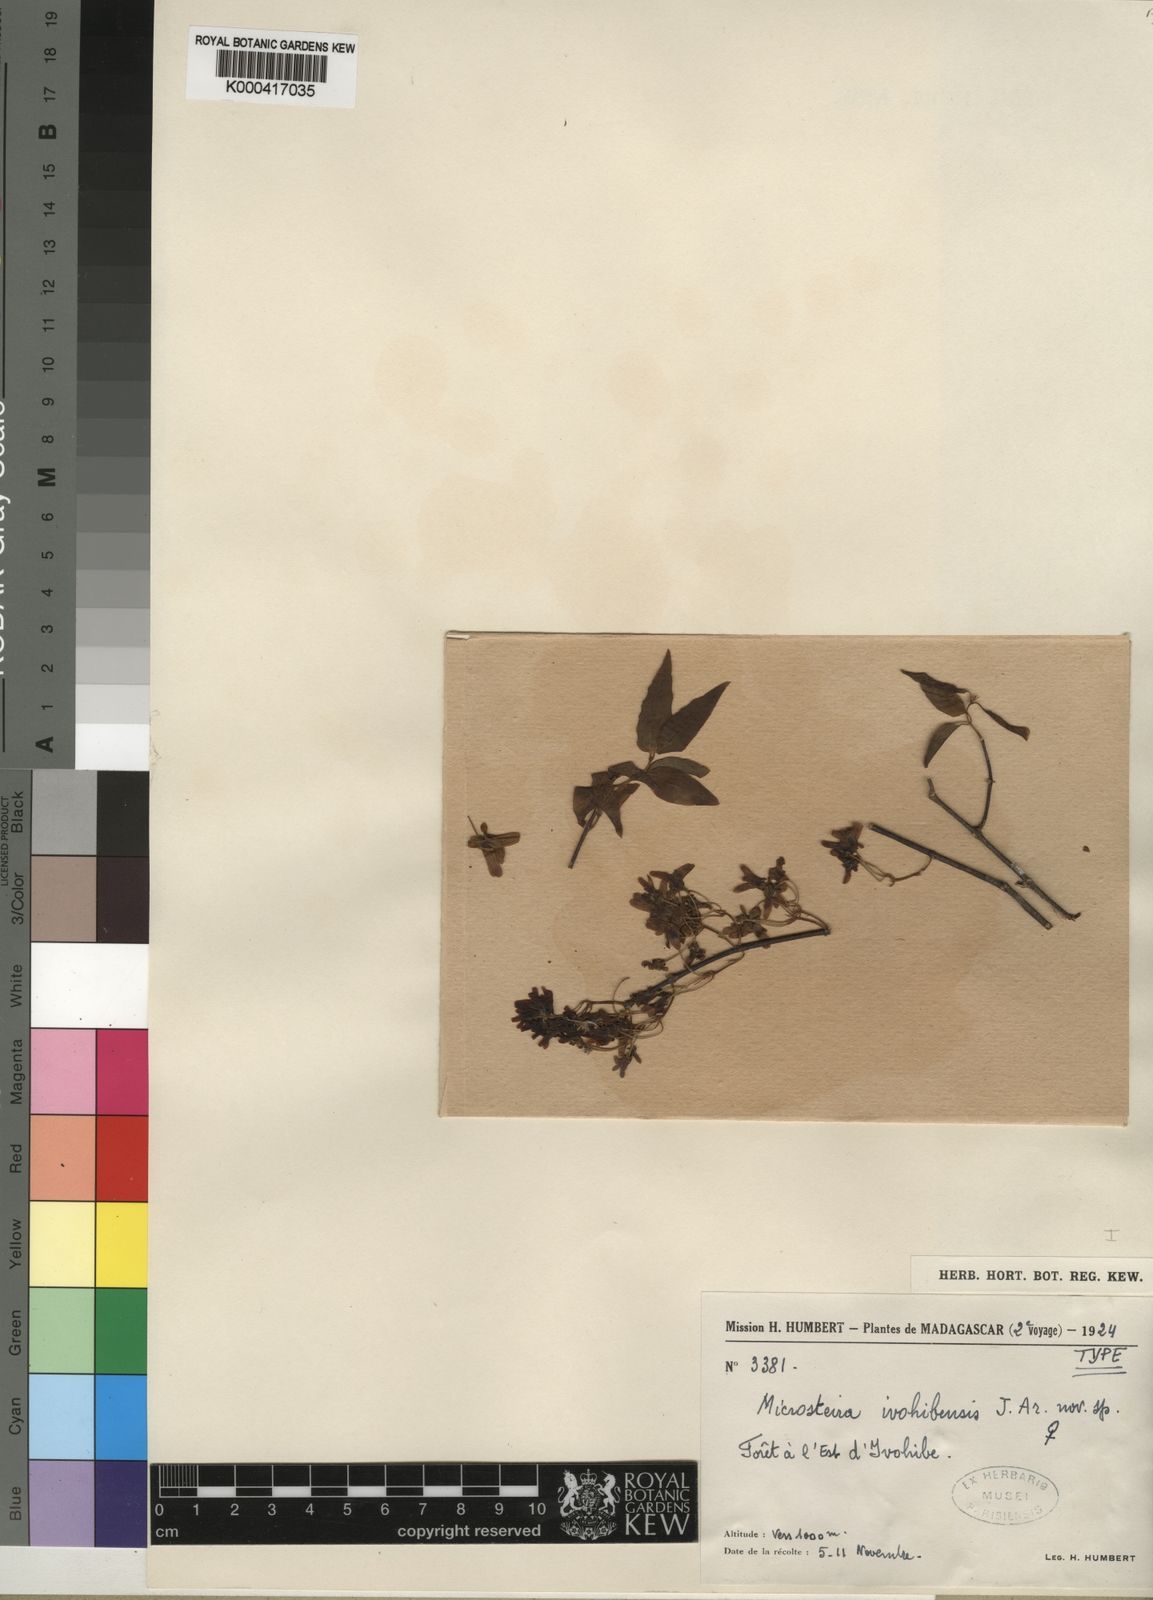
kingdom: Plantae
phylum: Tracheophyta
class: Magnoliopsida
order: Malpighiales
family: Malpighiaceae
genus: Microsteira
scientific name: Microsteira
